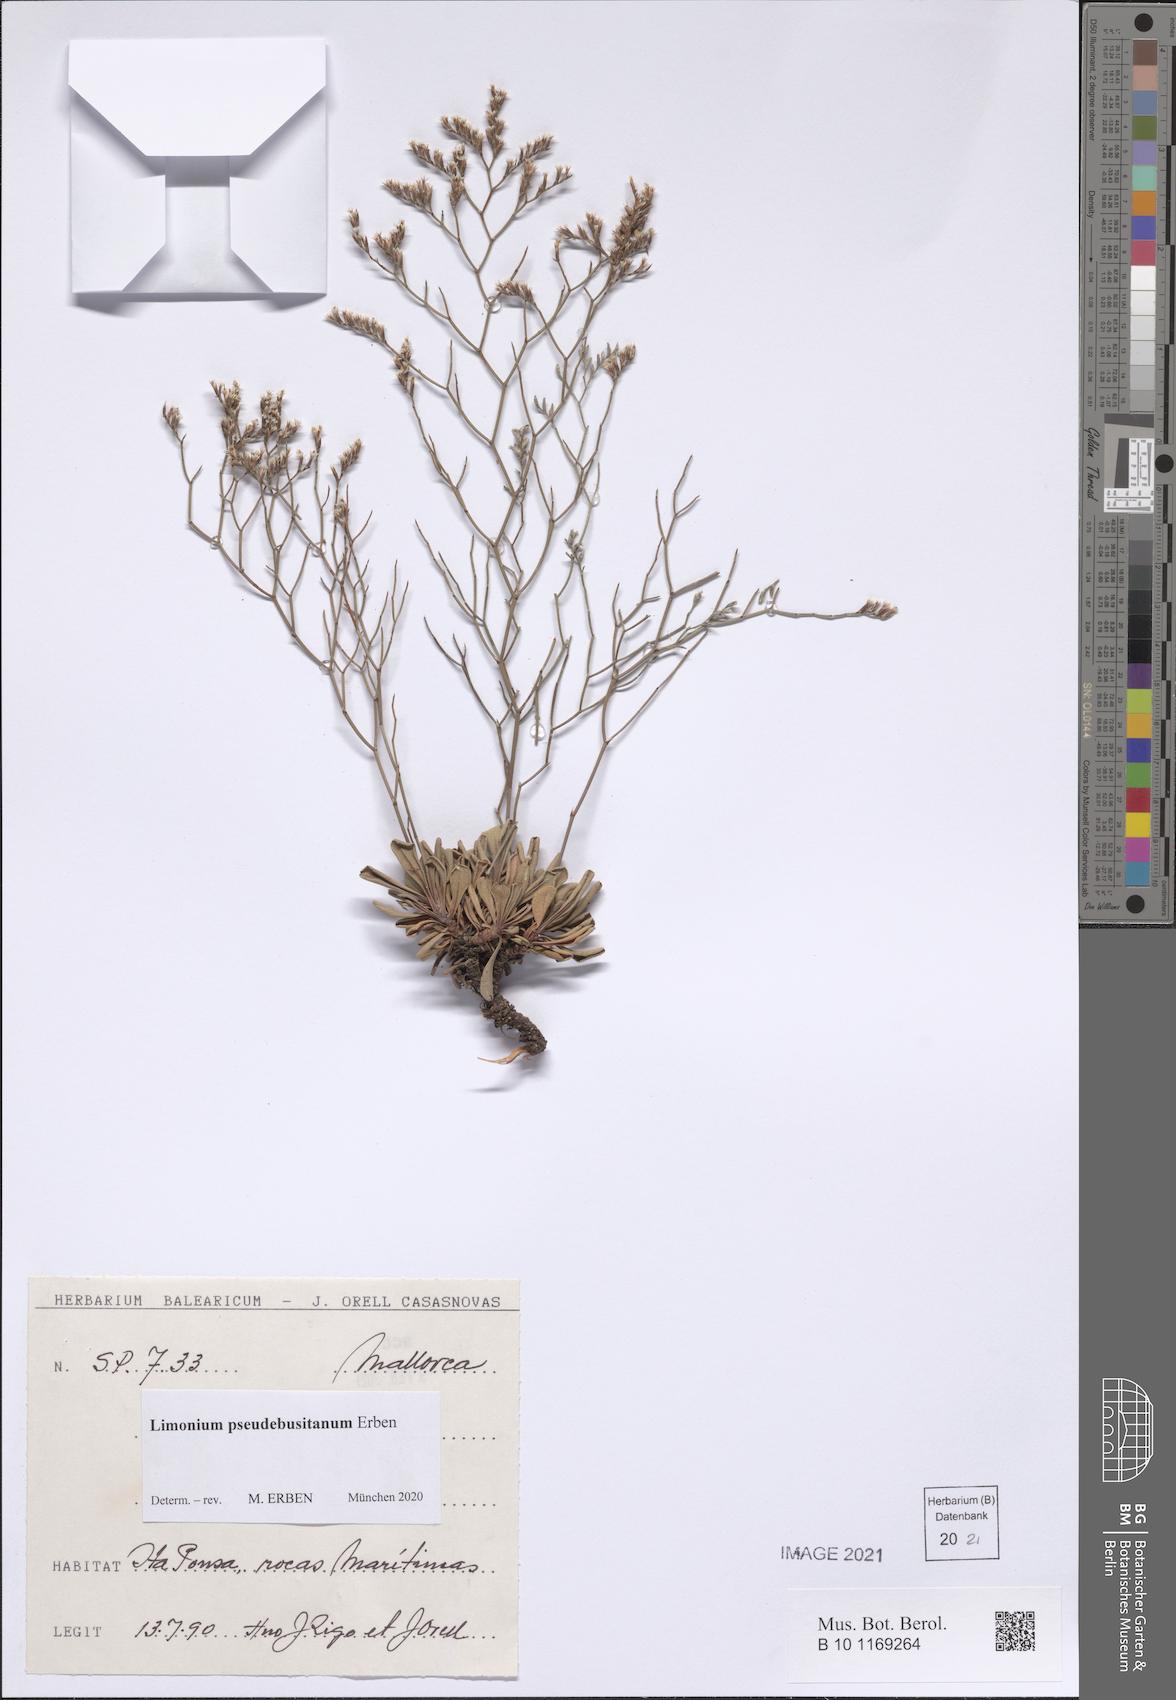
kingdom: Plantae
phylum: Tracheophyta
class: Magnoliopsida
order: Caryophyllales
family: Plumbaginaceae
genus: Limonium
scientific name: Limonium pseudebusitanum
